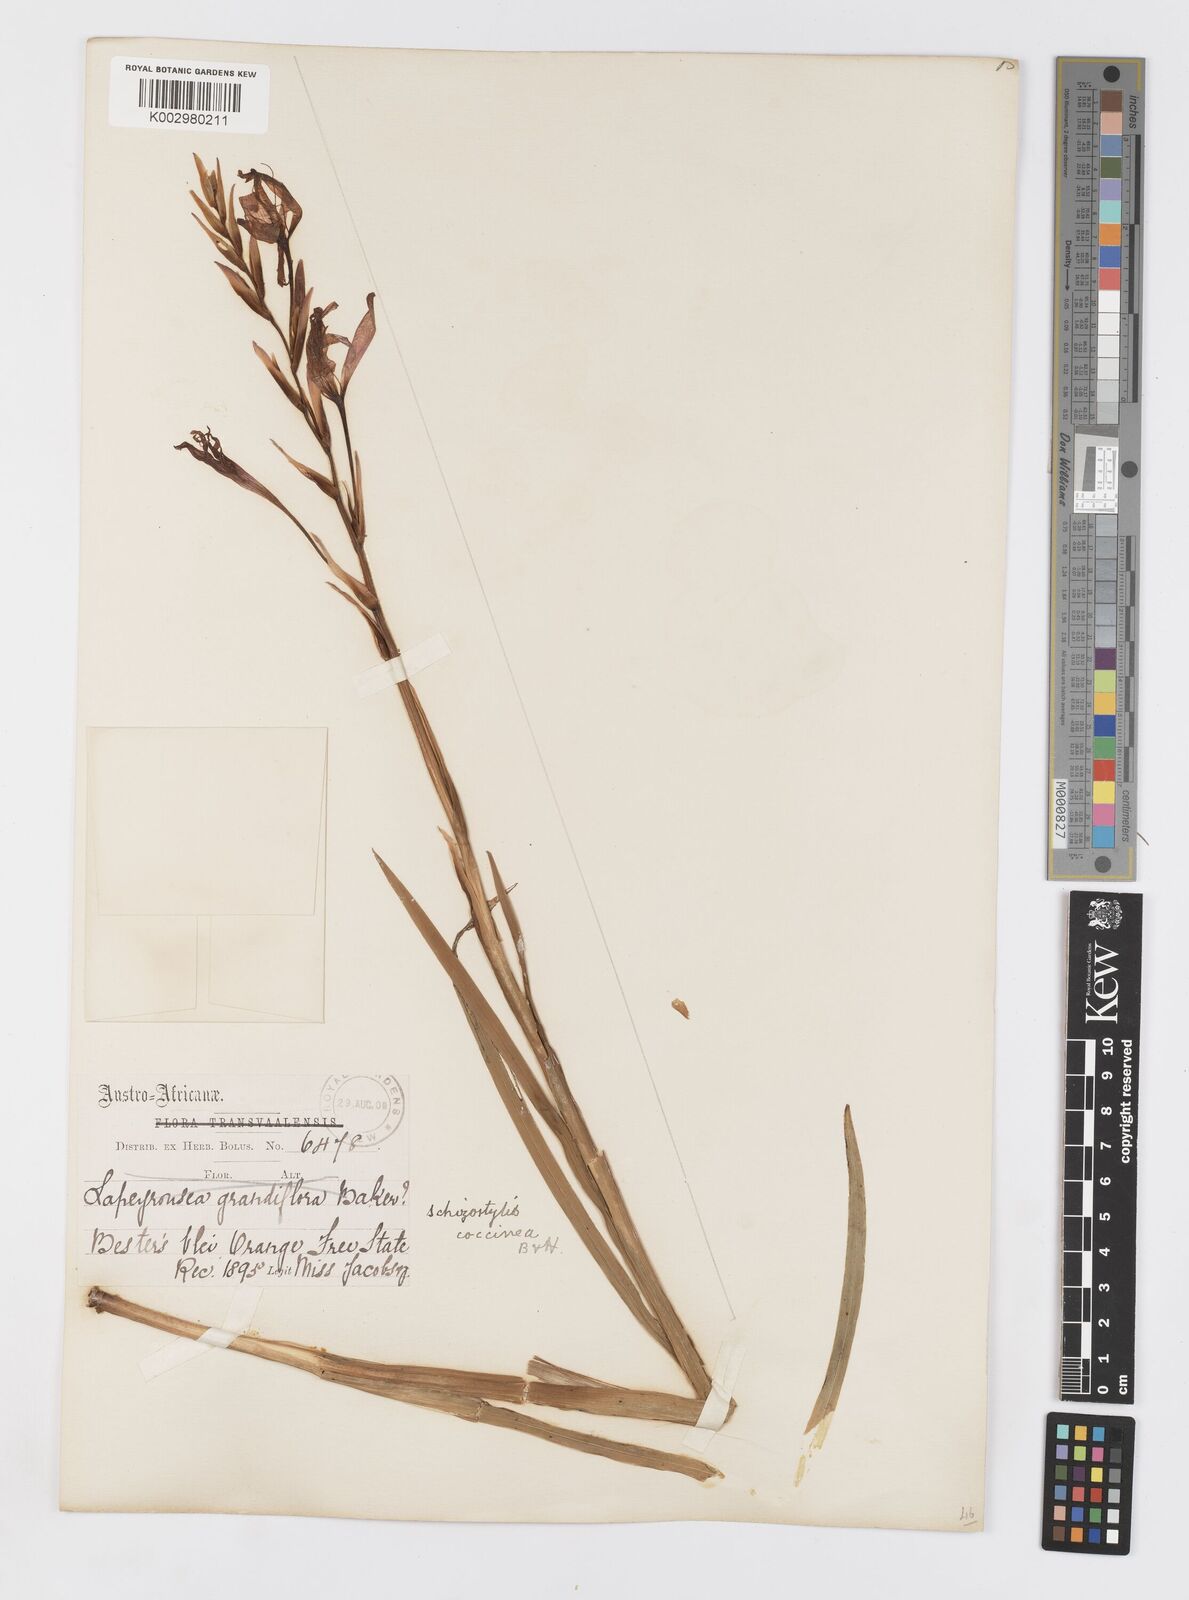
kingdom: Plantae
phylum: Tracheophyta
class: Liliopsida
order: Asparagales
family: Iridaceae
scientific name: Iridaceae
